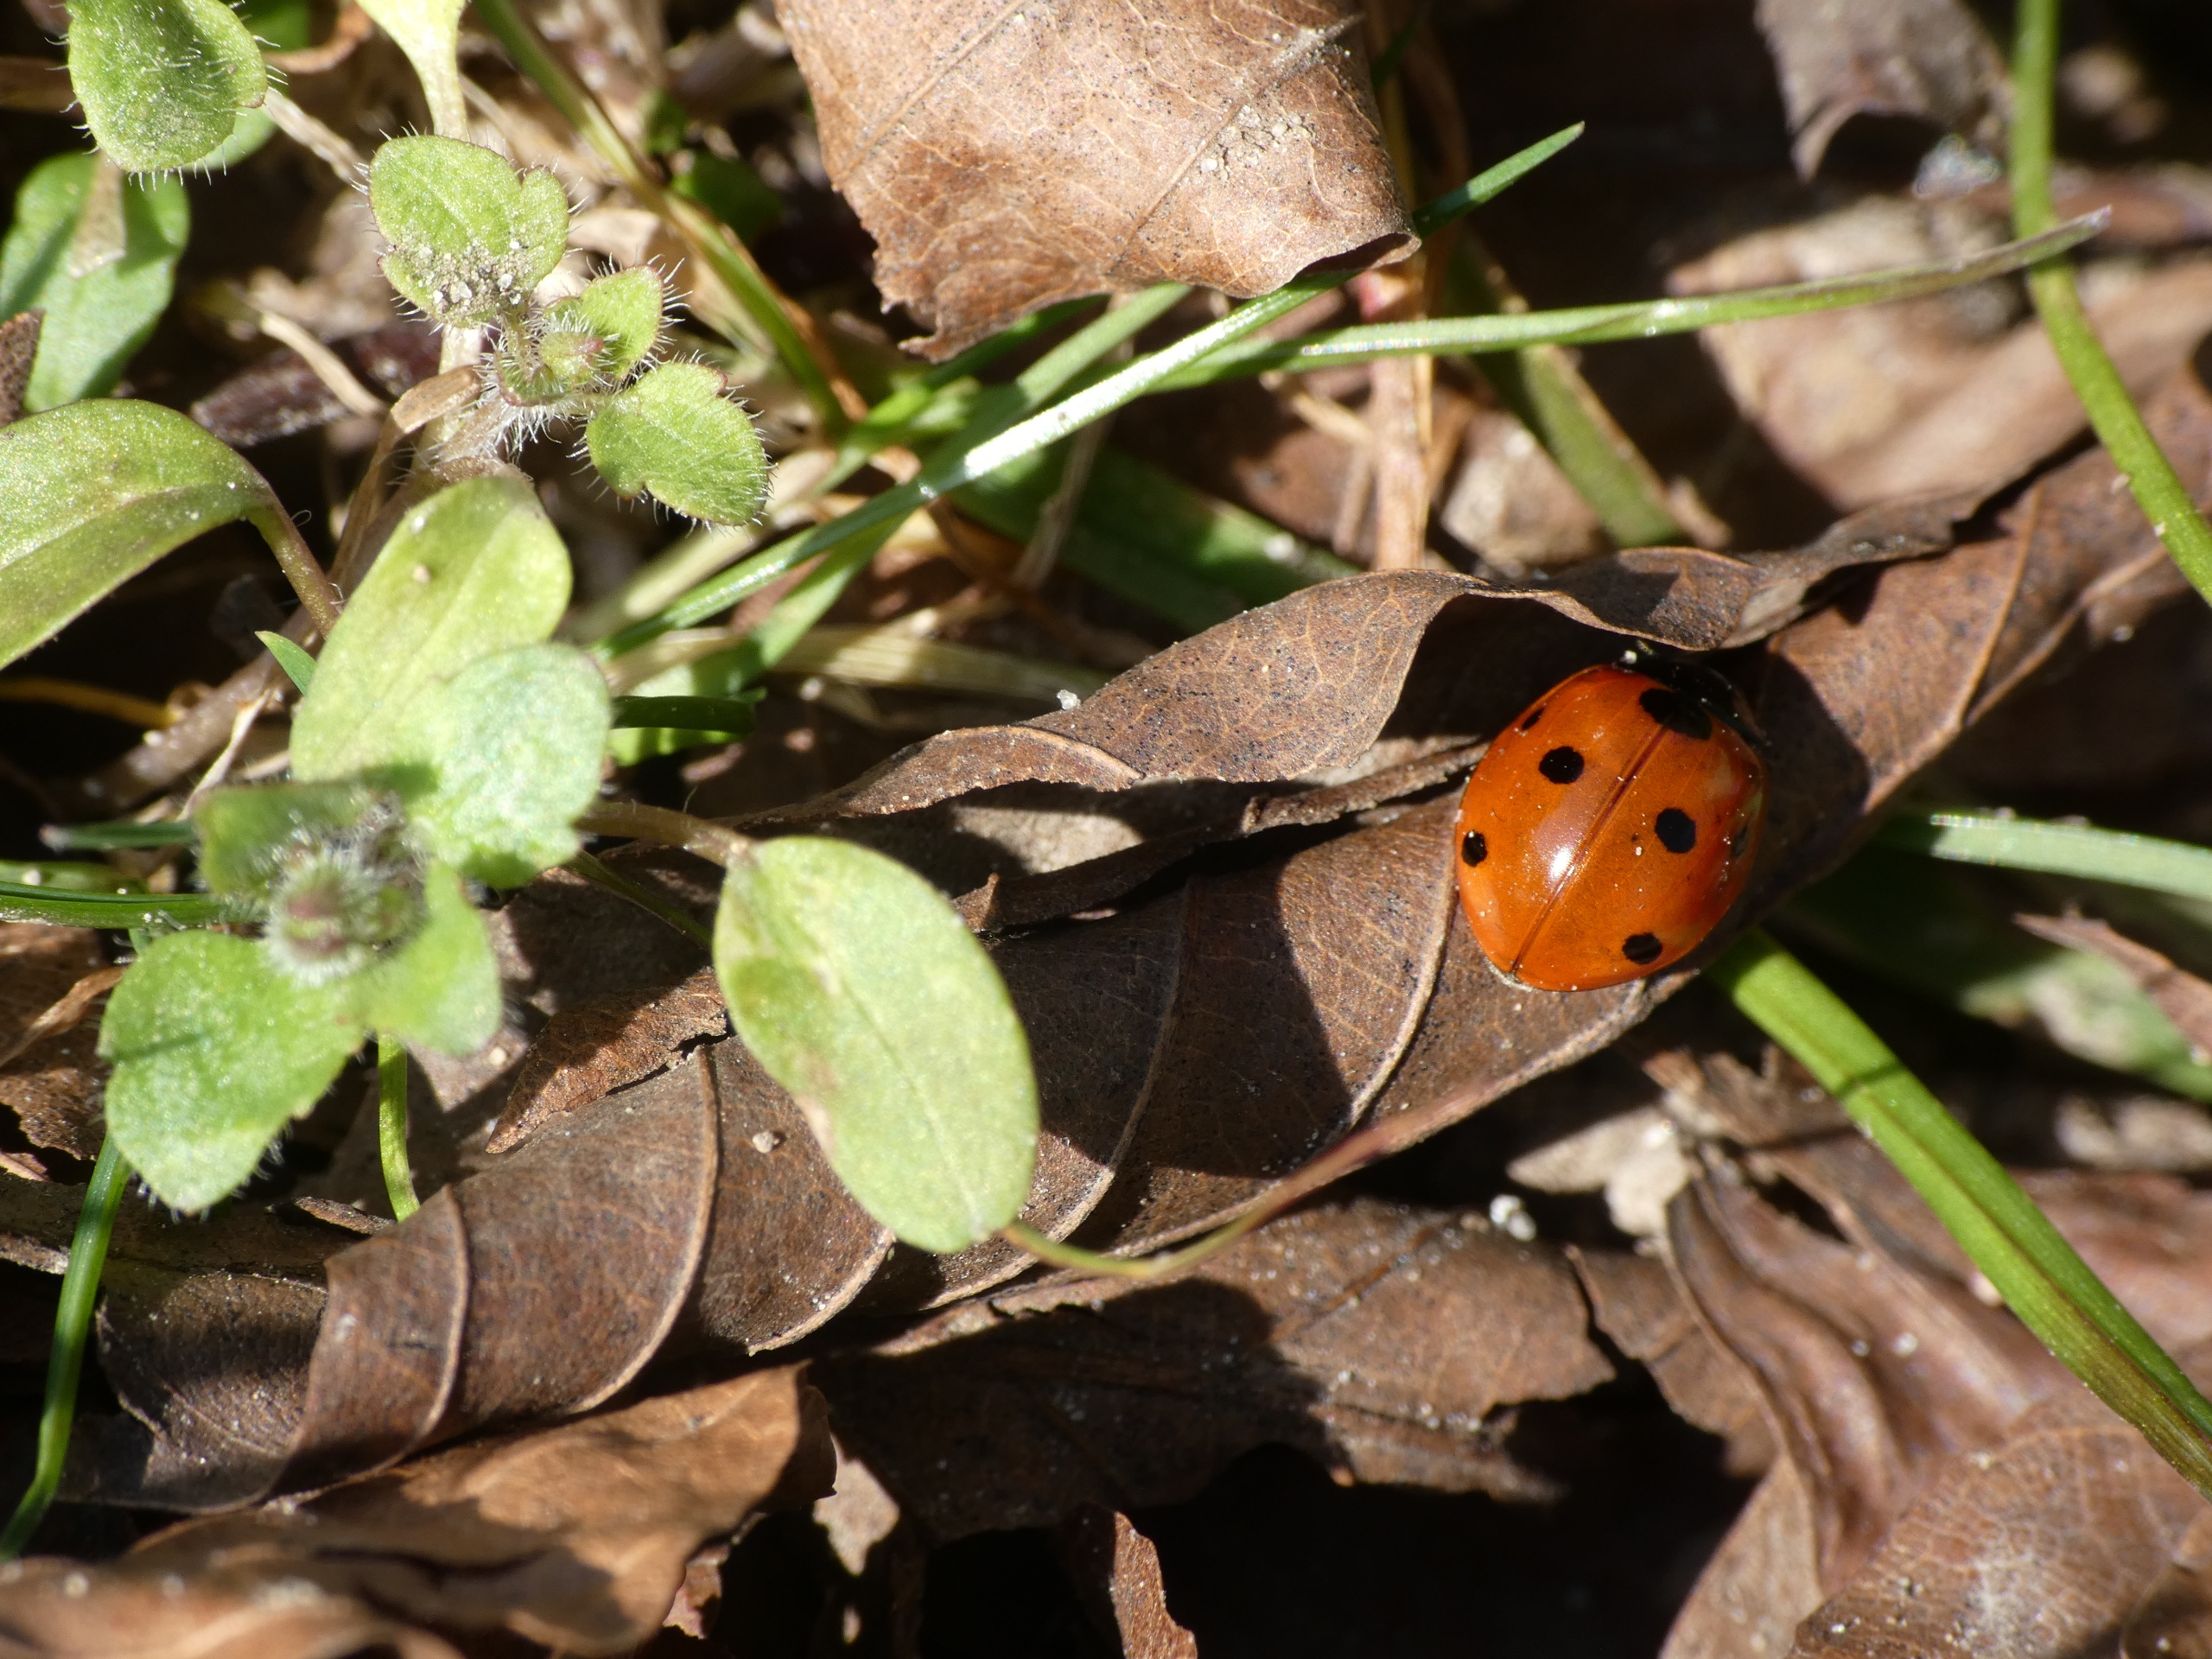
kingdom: Animalia
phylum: Arthropoda
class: Insecta
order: Coleoptera
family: Coccinellidae
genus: Coccinella
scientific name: Coccinella septempunctata
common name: Syvplettet mariehøne
